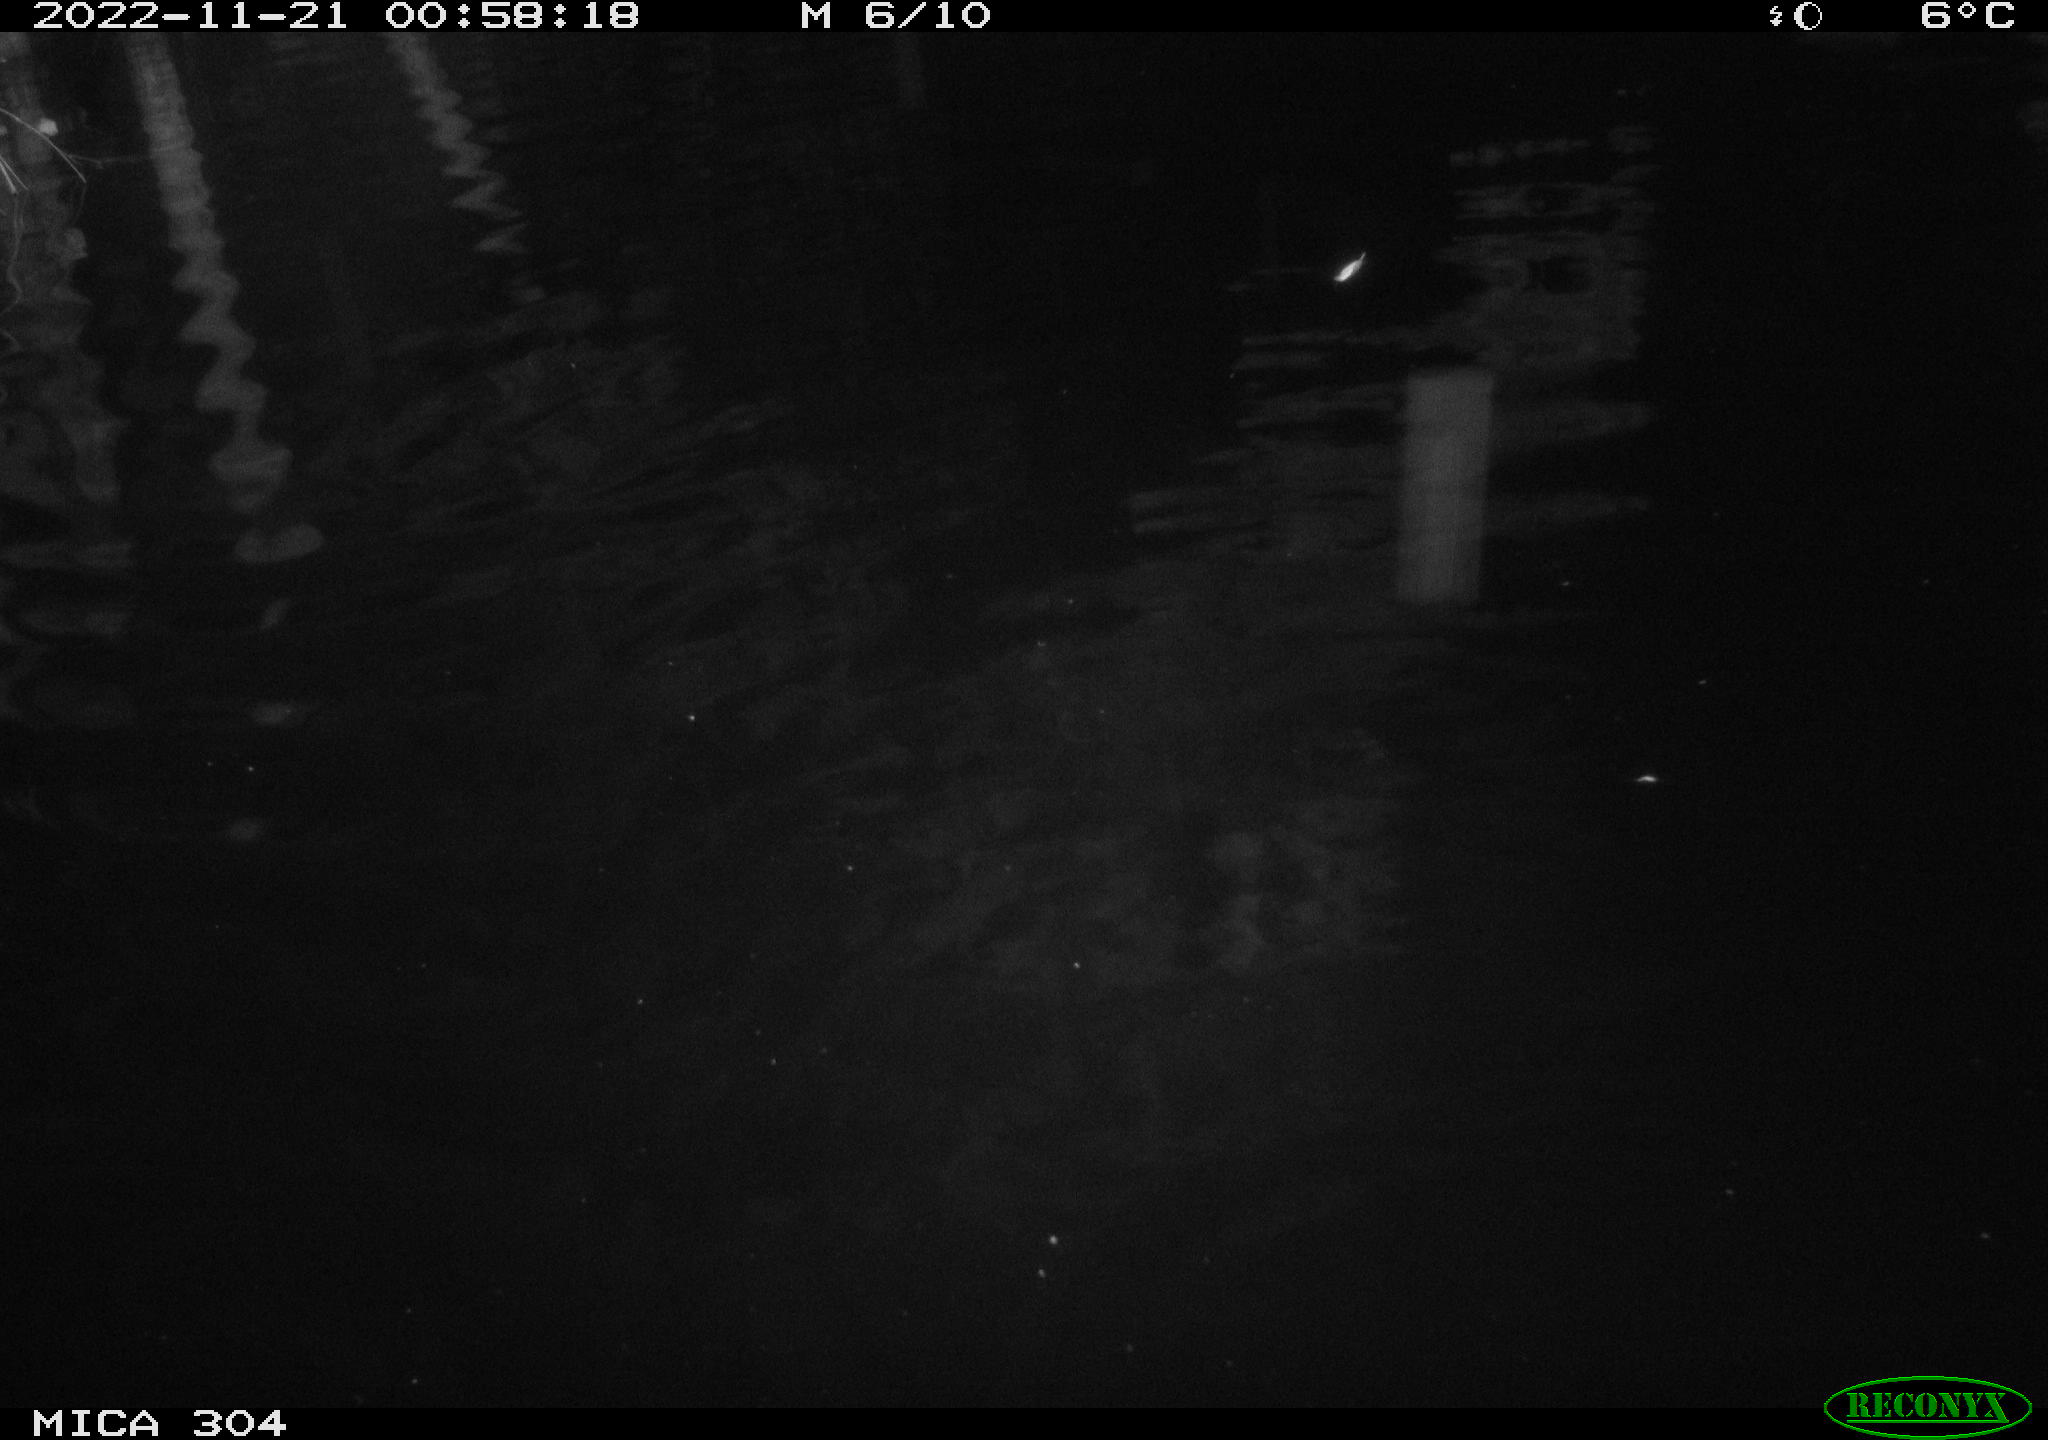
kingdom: Animalia
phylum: Chordata
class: Mammalia
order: Rodentia
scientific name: Rodentia
